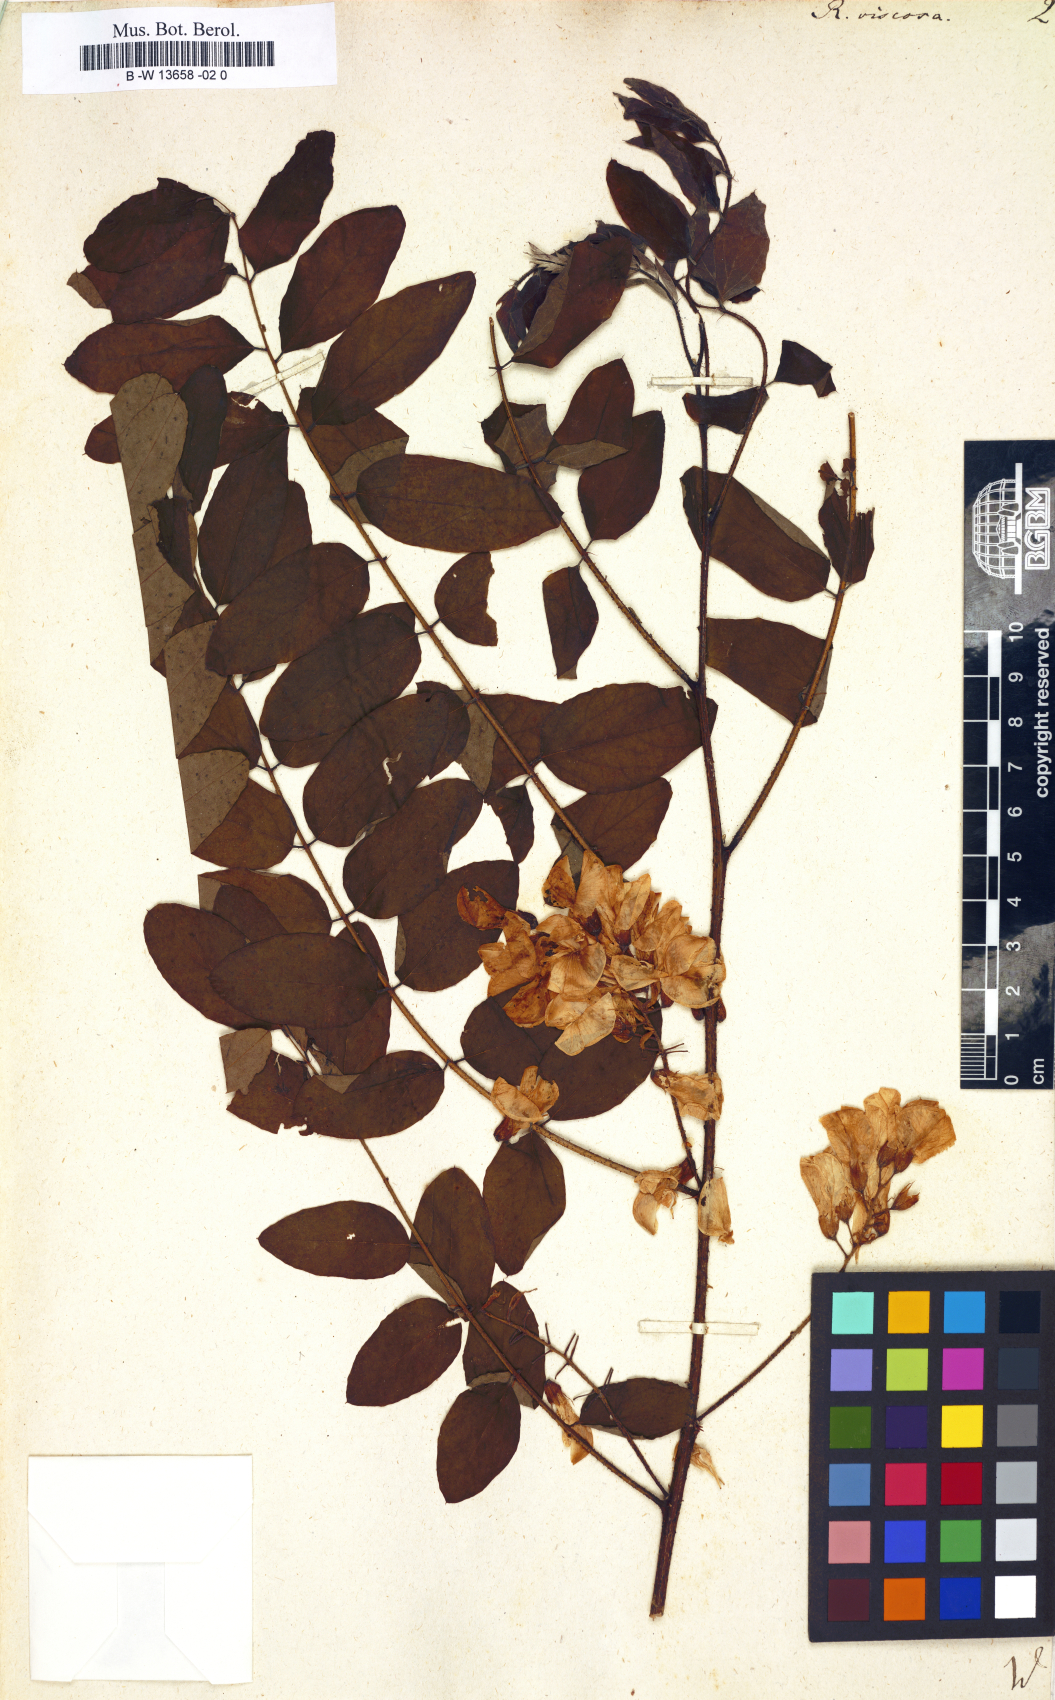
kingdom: Plantae
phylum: Tracheophyta
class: Magnoliopsida
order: Fabales
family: Fabaceae
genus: Robinia
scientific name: Robinia viscosa
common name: Clammy locust
